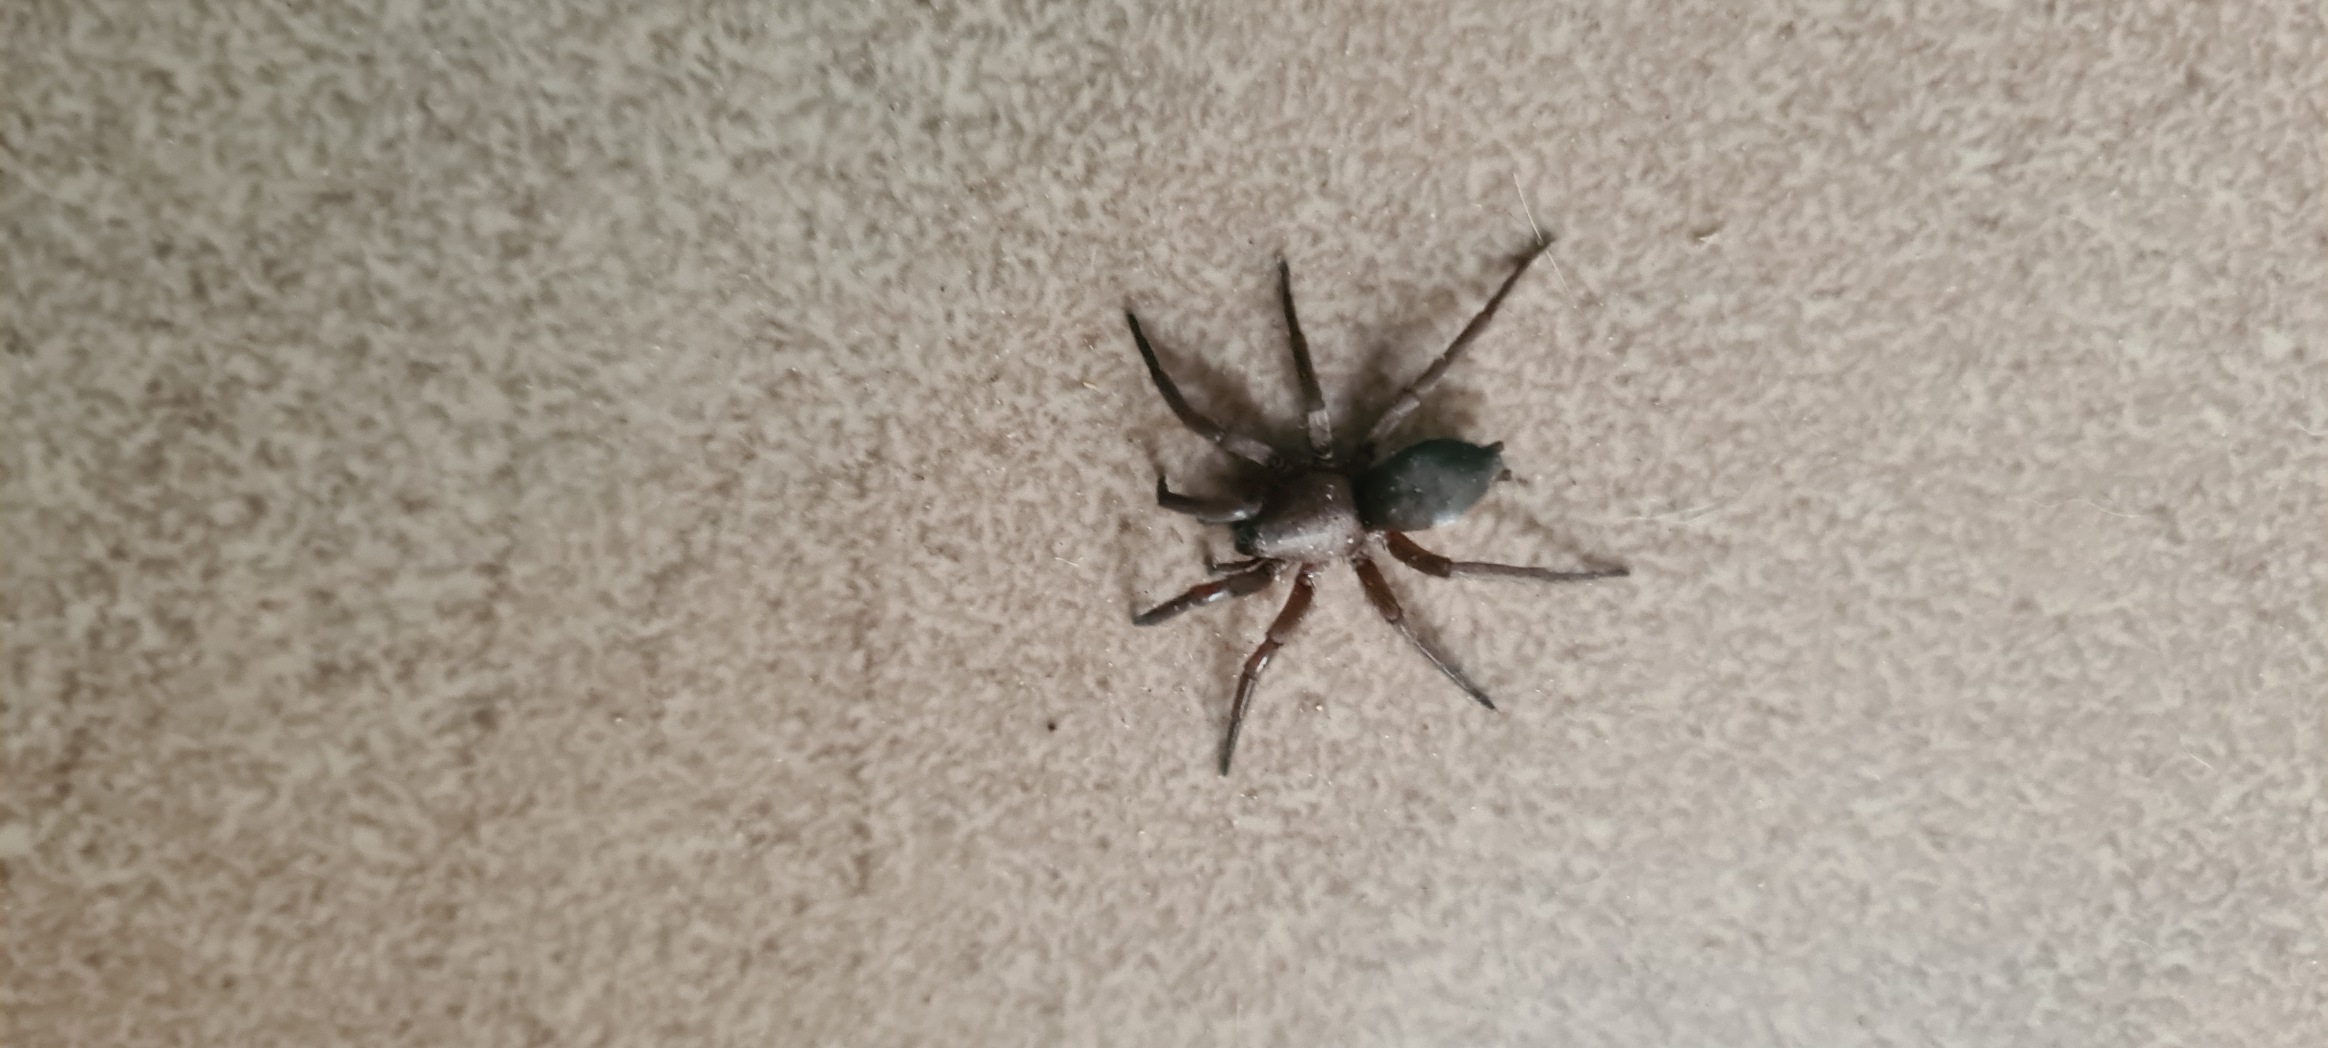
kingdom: Animalia
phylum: Arthropoda
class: Arachnida
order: Araneae
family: Gnaphosidae
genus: Scotophaeus
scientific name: Scotophaeus
